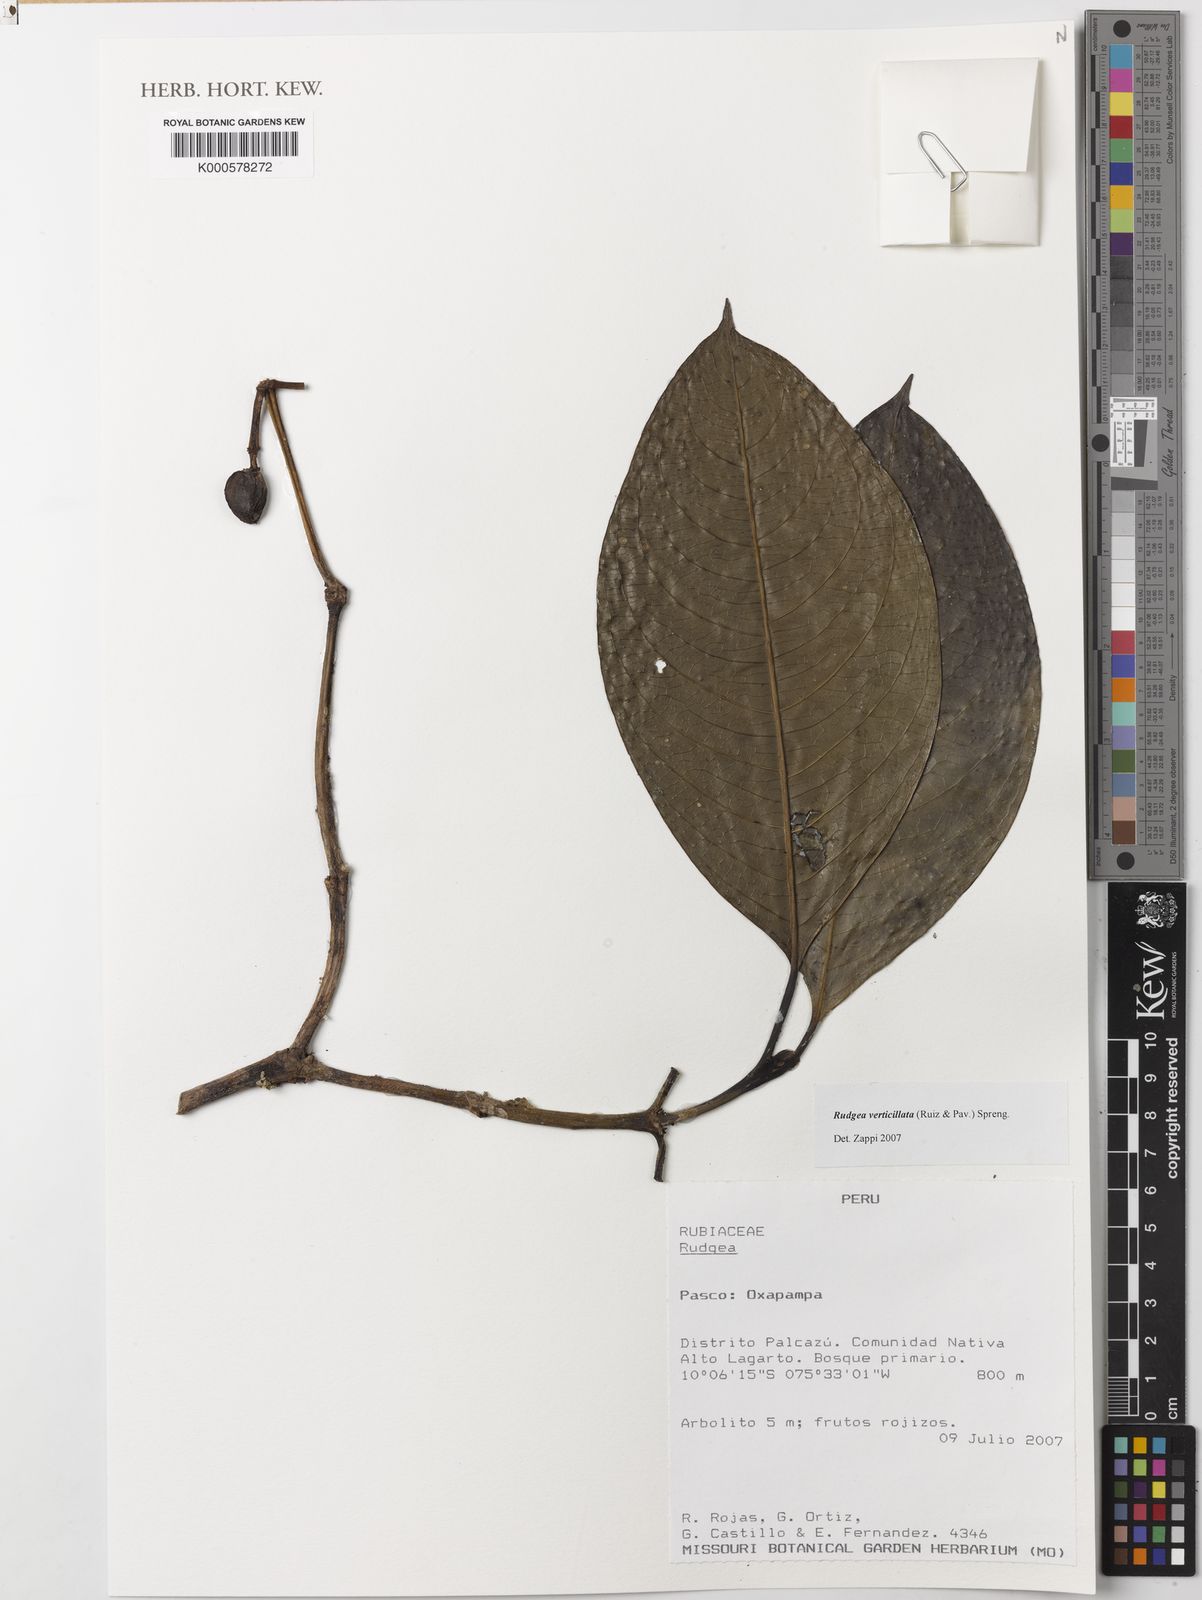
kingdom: Plantae
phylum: Tracheophyta
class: Magnoliopsida
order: Gentianales
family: Rubiaceae
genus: Rudgea
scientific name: Rudgea verticillata
